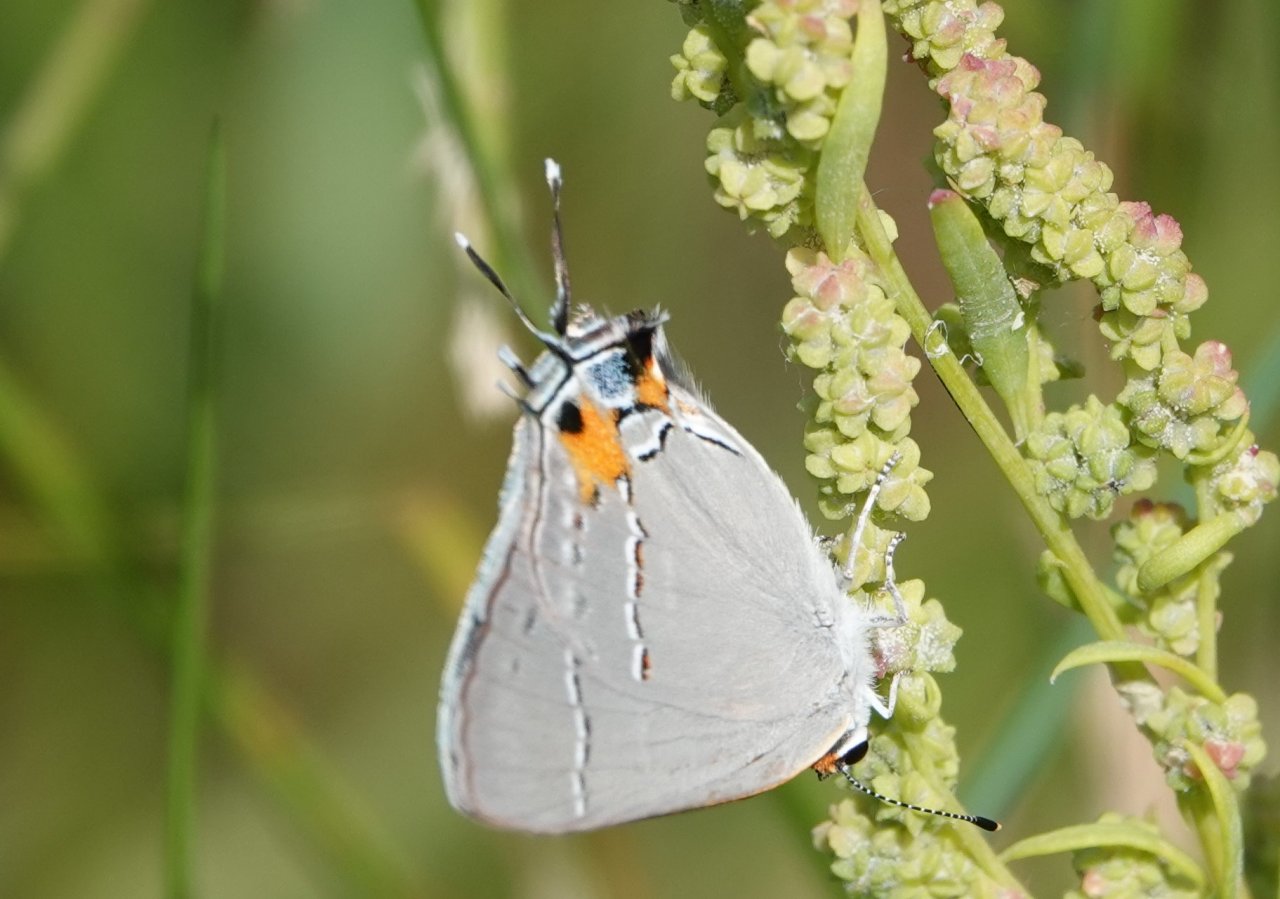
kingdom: Animalia
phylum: Arthropoda
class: Insecta
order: Lepidoptera
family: Lycaenidae
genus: Strymon
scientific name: Strymon melinus
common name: Gray Hairstreak
